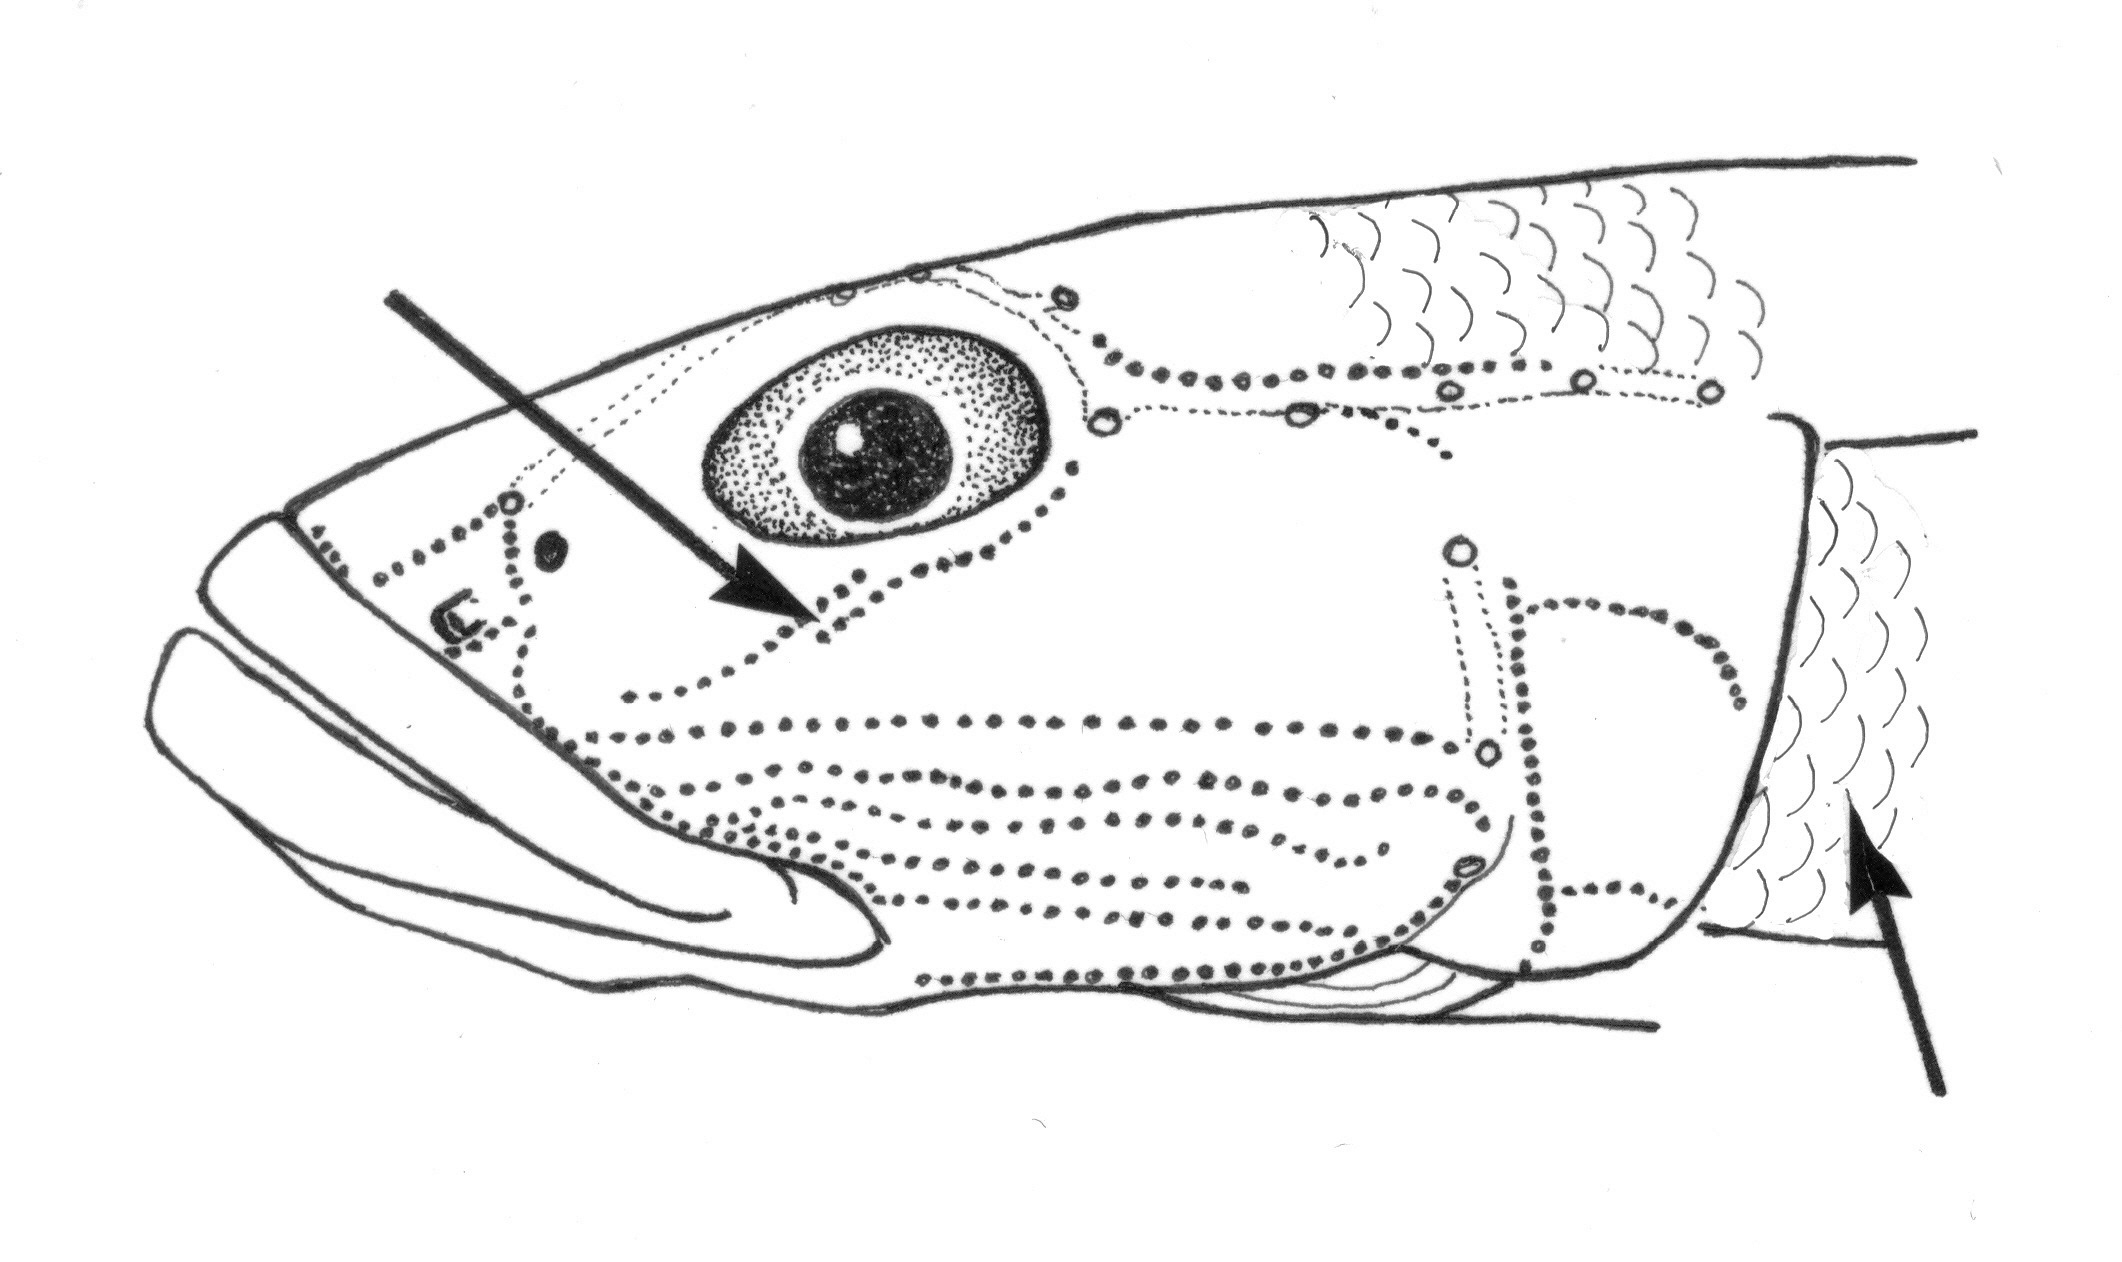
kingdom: Animalia
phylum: Chordata
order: Perciformes
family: Gobiidae
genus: Glossogobius
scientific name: Glossogobius kokius
